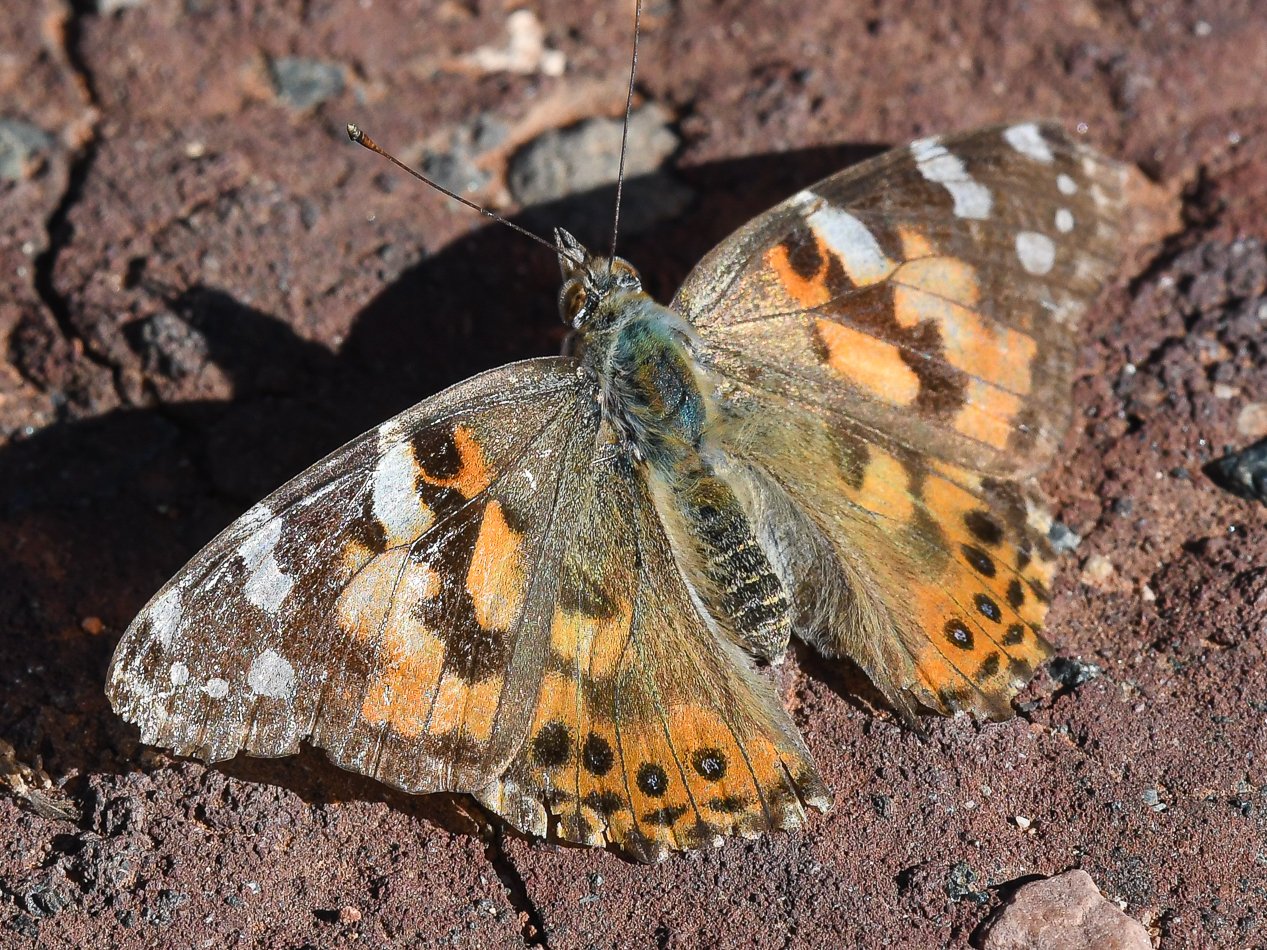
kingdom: Animalia
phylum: Arthropoda
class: Insecta
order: Lepidoptera
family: Nymphalidae
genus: Vanessa
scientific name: Vanessa cardui
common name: Painted Lady
